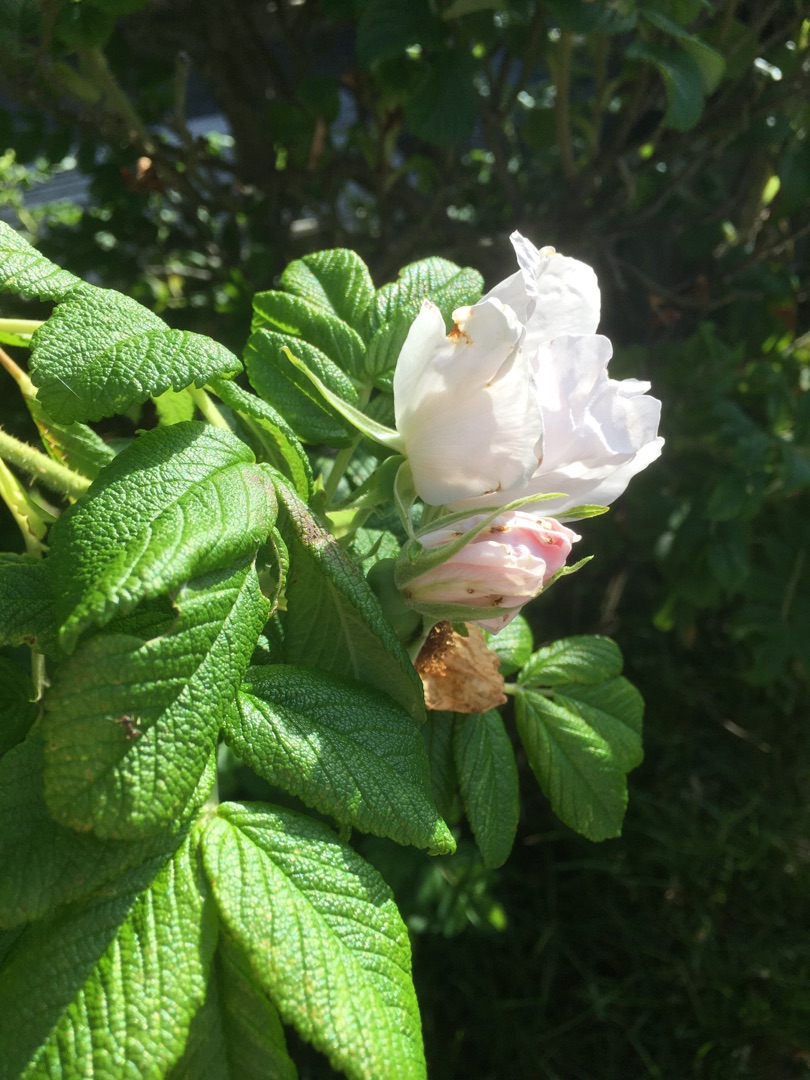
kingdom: Plantae
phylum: Tracheophyta
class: Magnoliopsida
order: Rosales
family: Rosaceae
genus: Rosa
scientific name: Rosa rugosa
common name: Rynket rose
